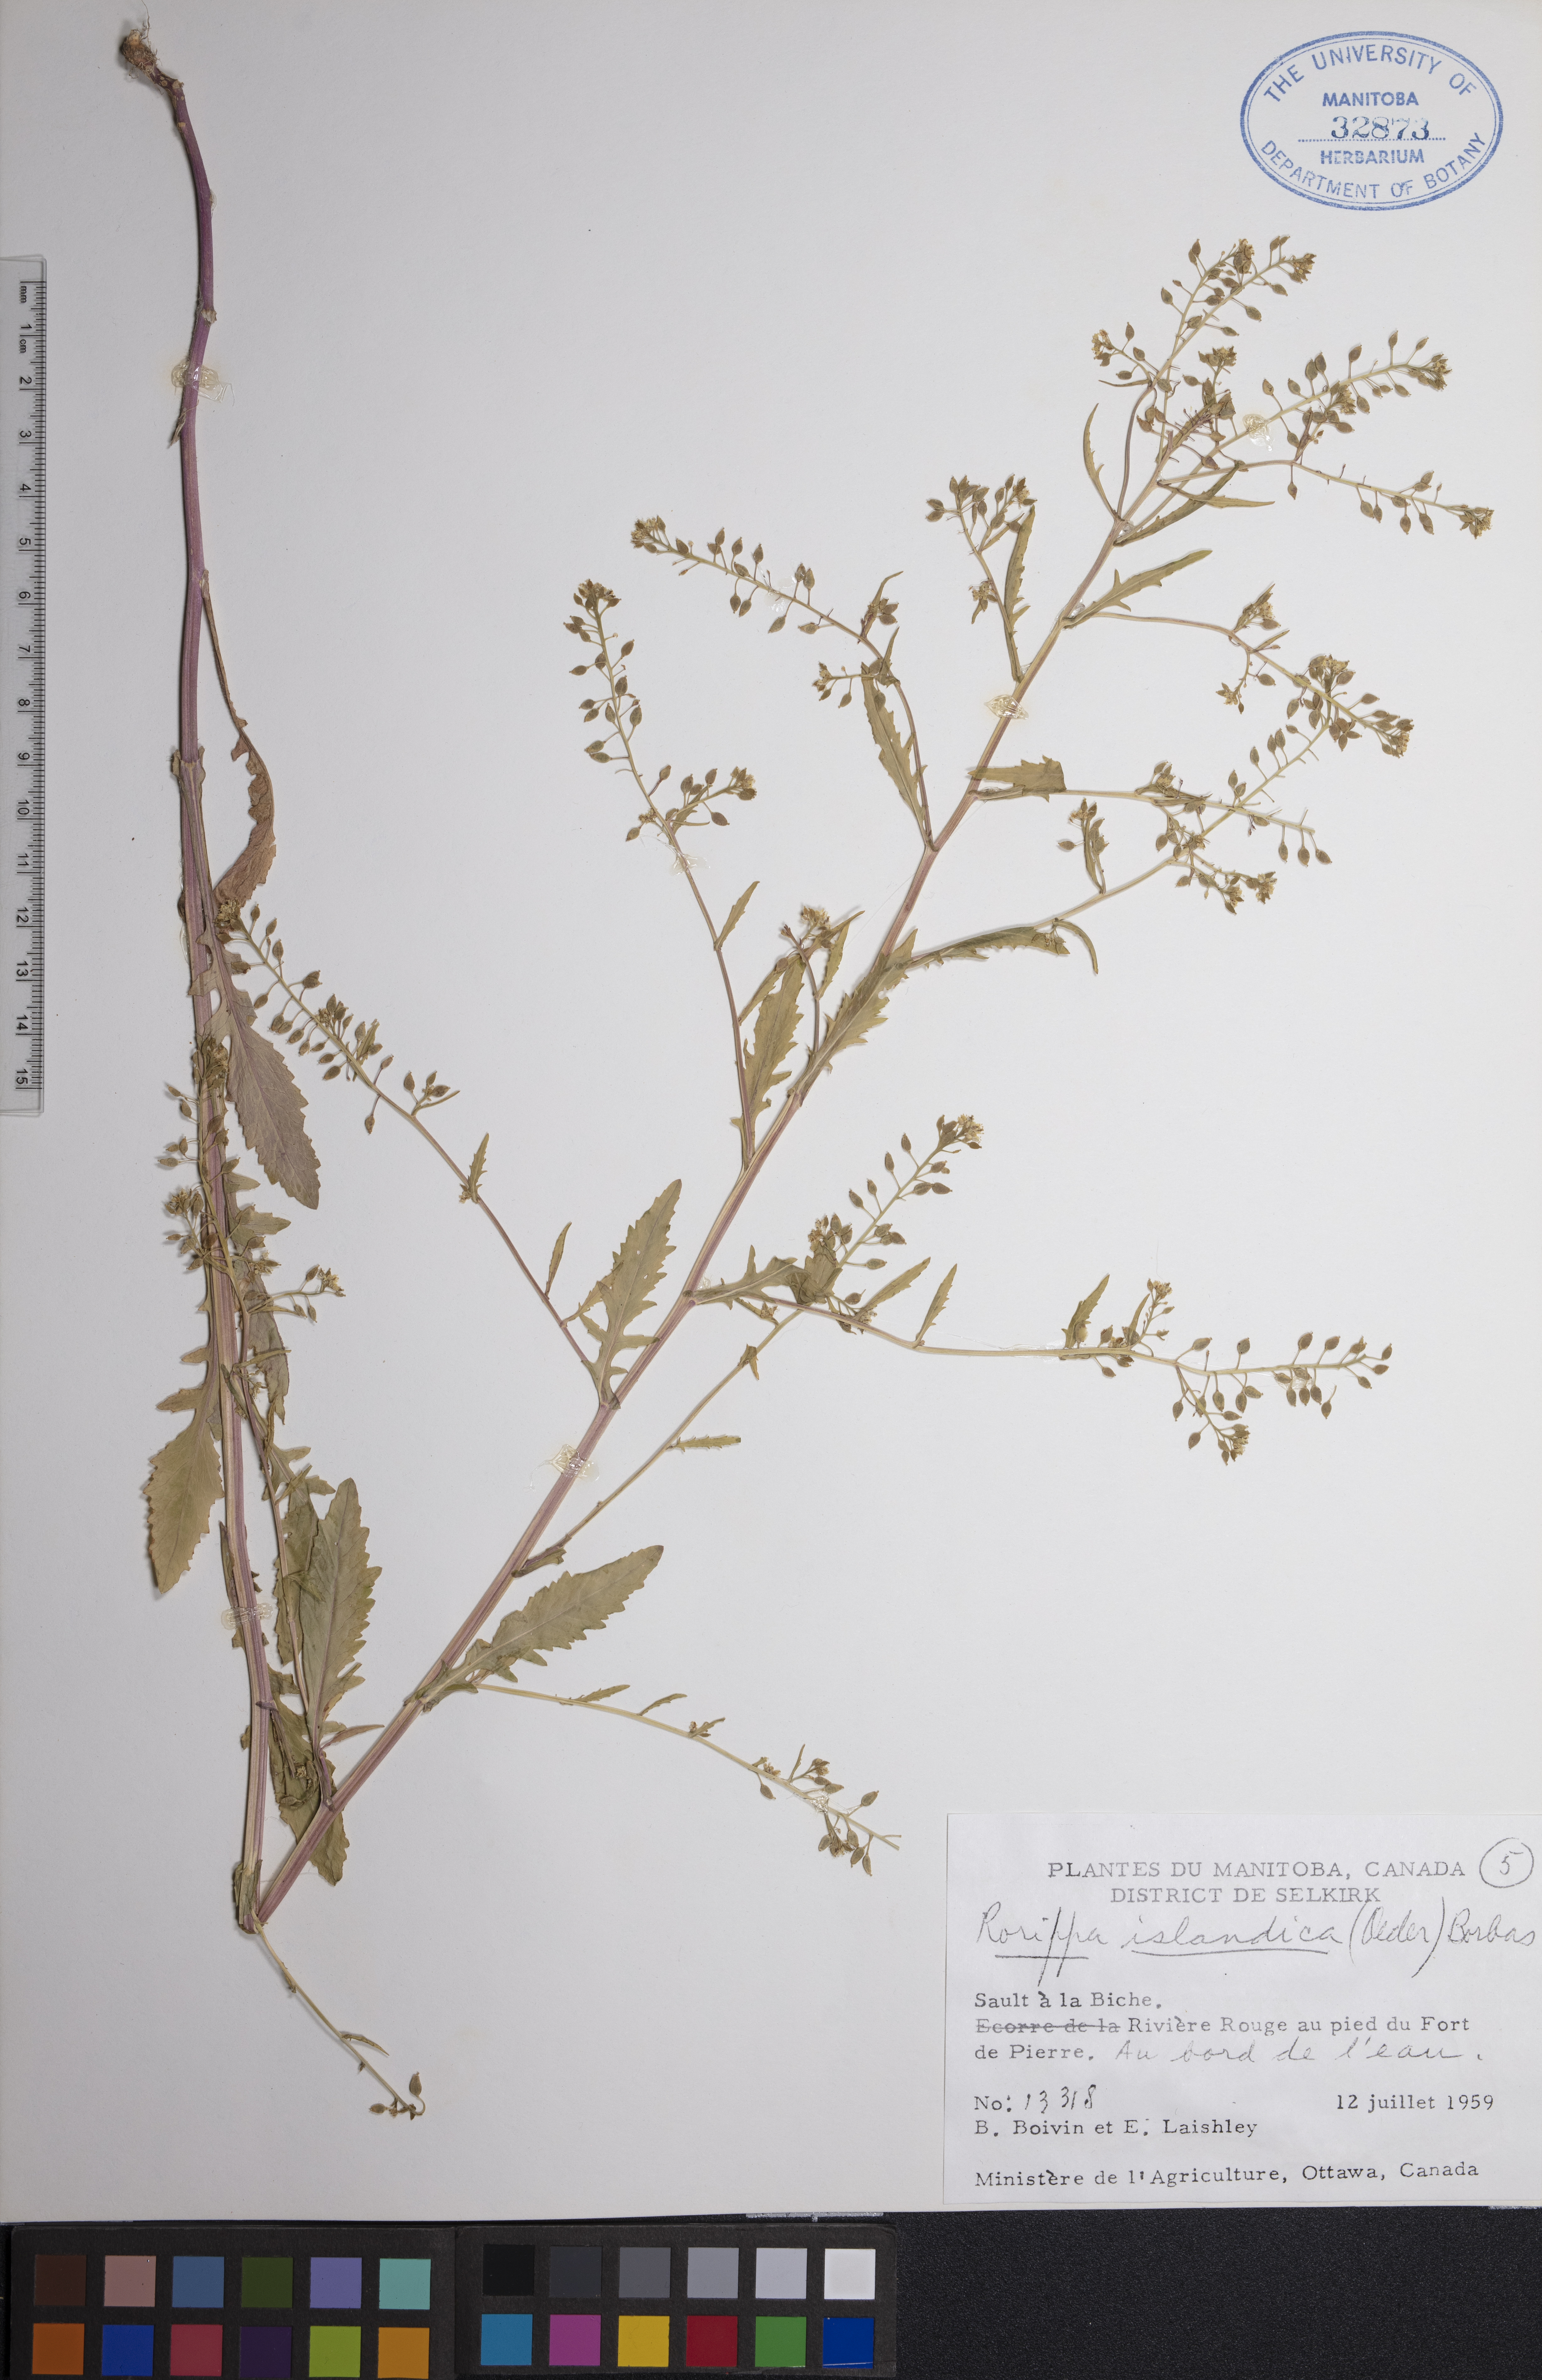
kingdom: Plantae
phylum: Tracheophyta
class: Magnoliopsida
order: Brassicales
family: Brassicaceae
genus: Rorippa
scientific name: Rorippa islandica
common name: Marsh cress
